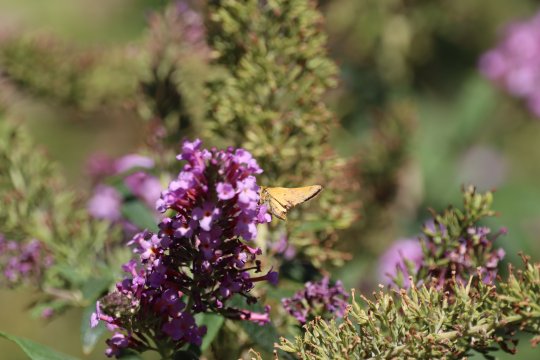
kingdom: Animalia
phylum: Arthropoda
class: Insecta
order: Lepidoptera
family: Hesperiidae
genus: Hylephila
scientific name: Hylephila phyleus
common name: Fiery Skipper
